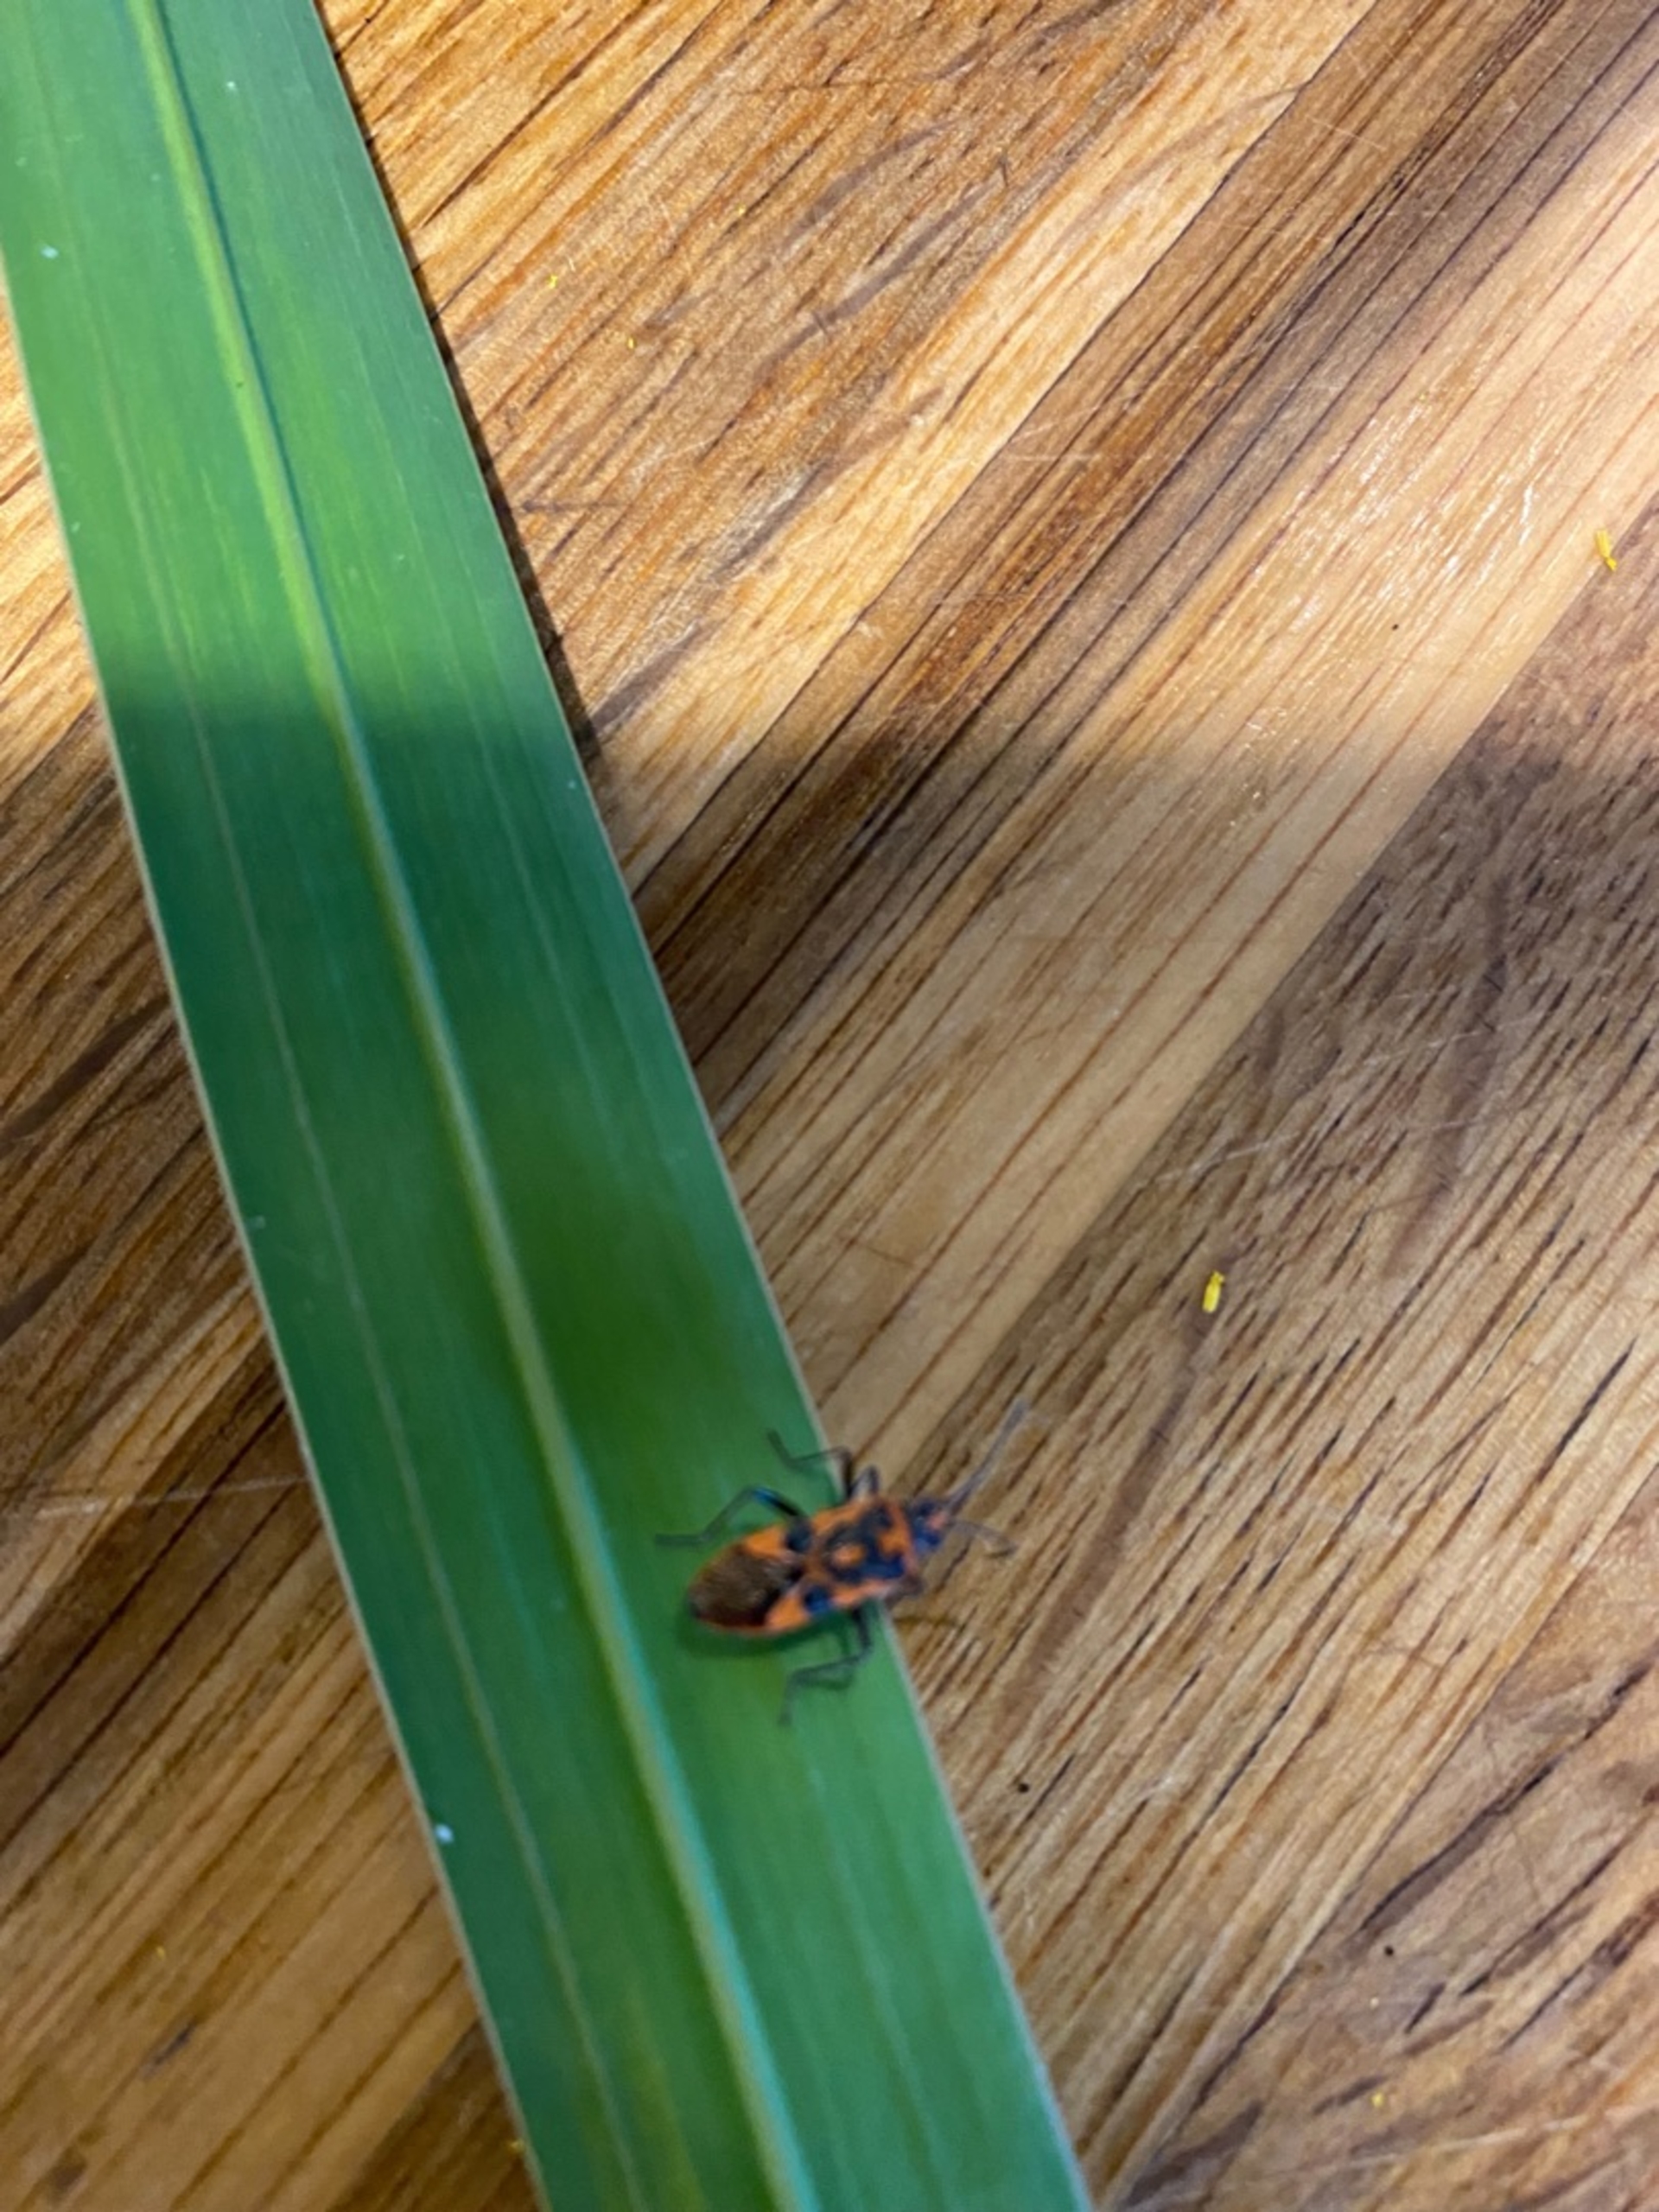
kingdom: Animalia
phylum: Arthropoda
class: Insecta
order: Hemiptera
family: Rhopalidae
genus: Corizus
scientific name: Corizus hyoscyami
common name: Rød kanttæge
